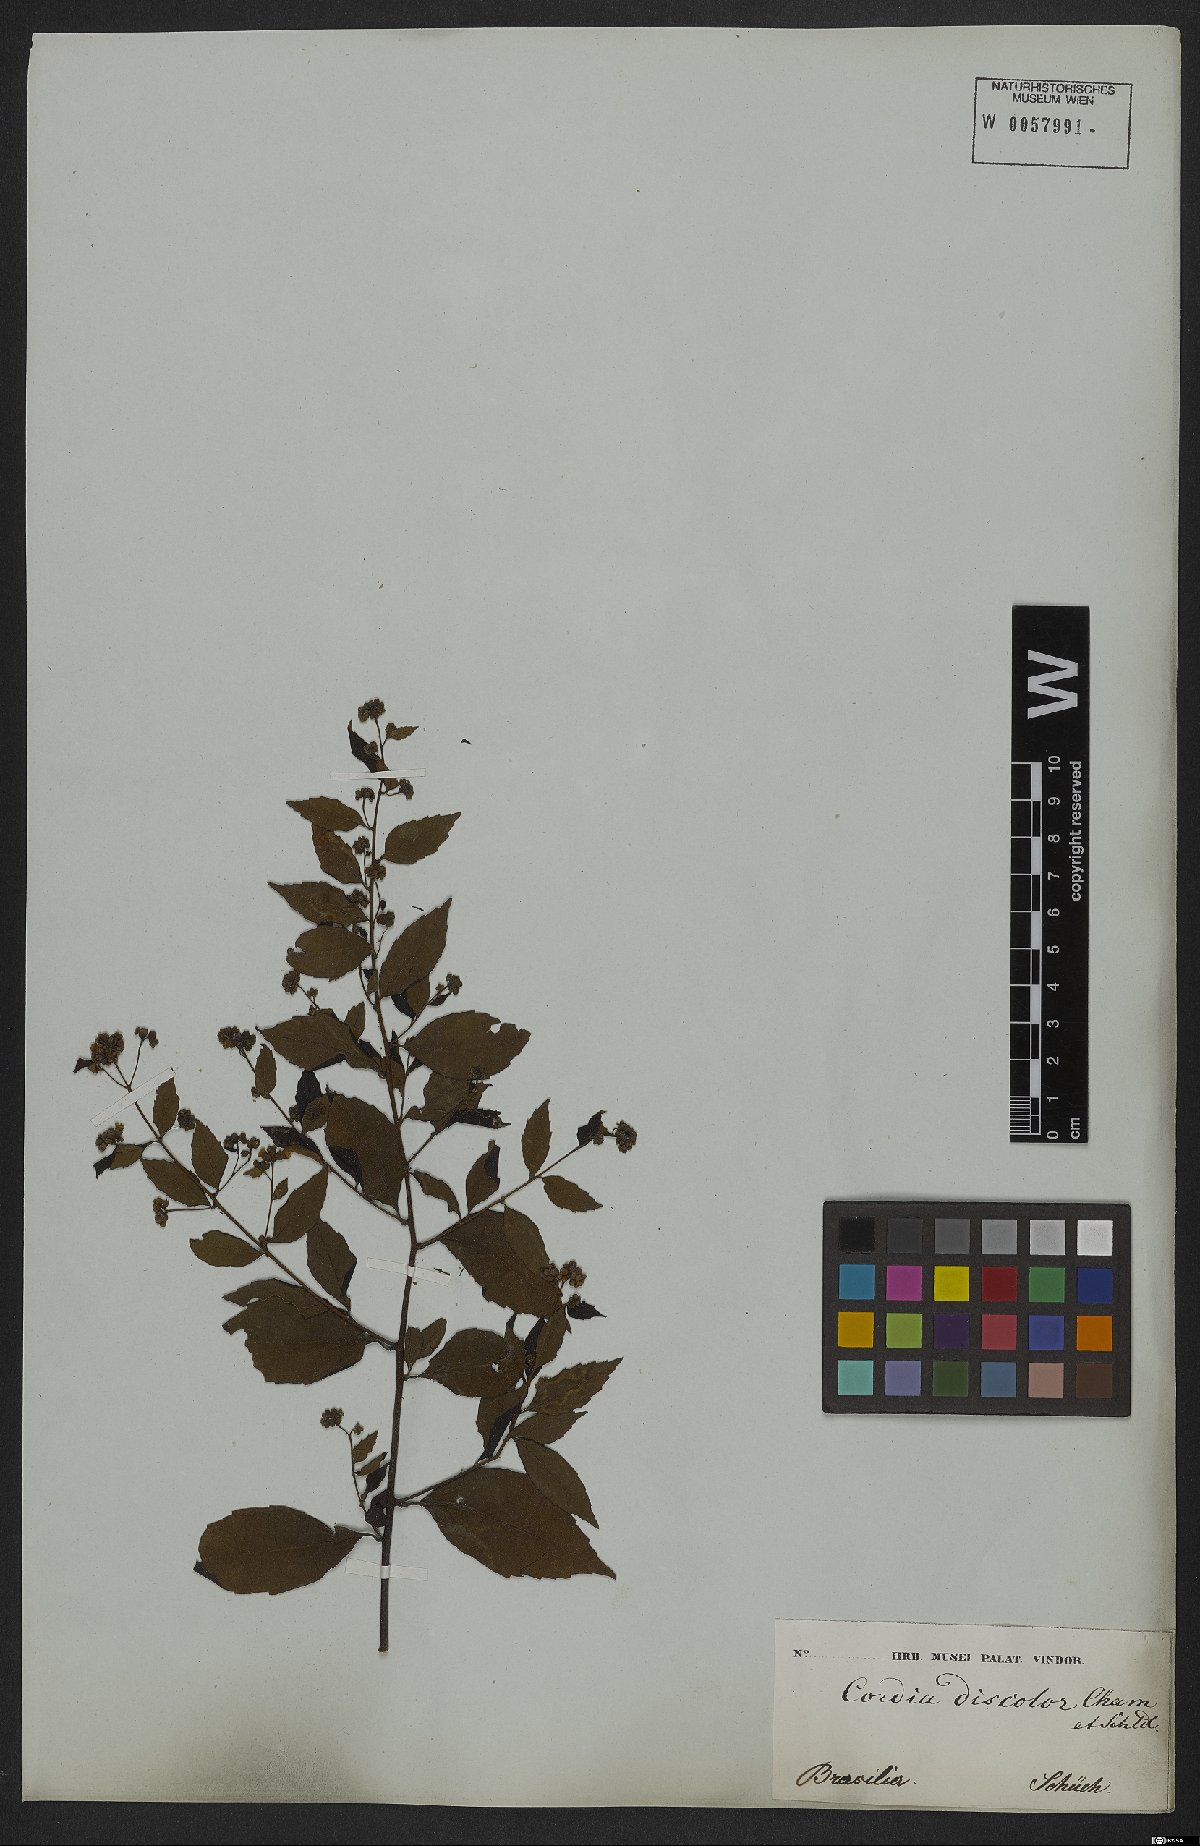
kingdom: Plantae
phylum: Tracheophyta
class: Magnoliopsida
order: Boraginales
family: Cordiaceae
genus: Varronia
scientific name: Varronia discolor
